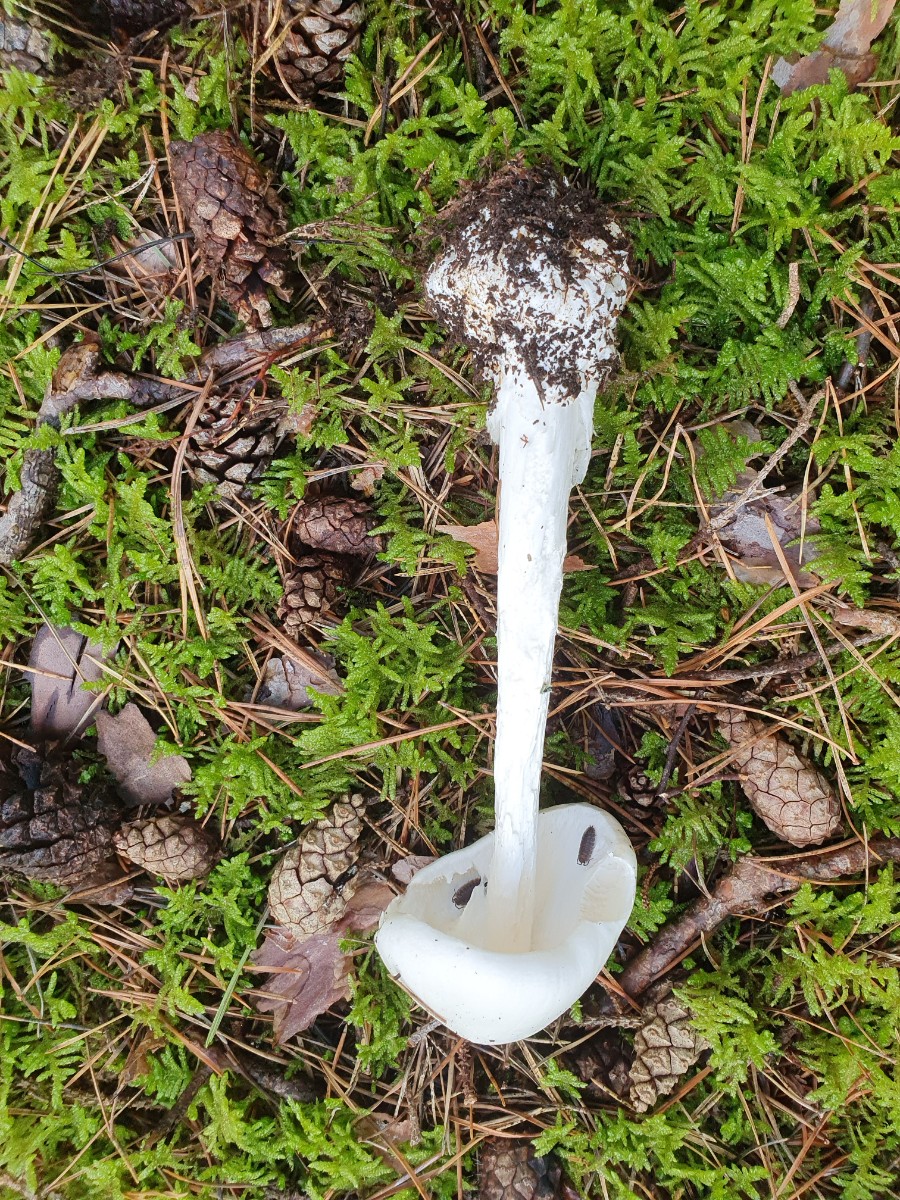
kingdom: Fungi
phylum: Basidiomycota
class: Agaricomycetes
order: Agaricales
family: Amanitaceae
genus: Amanita
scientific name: Amanita virosa
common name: snehvid fluesvamp
